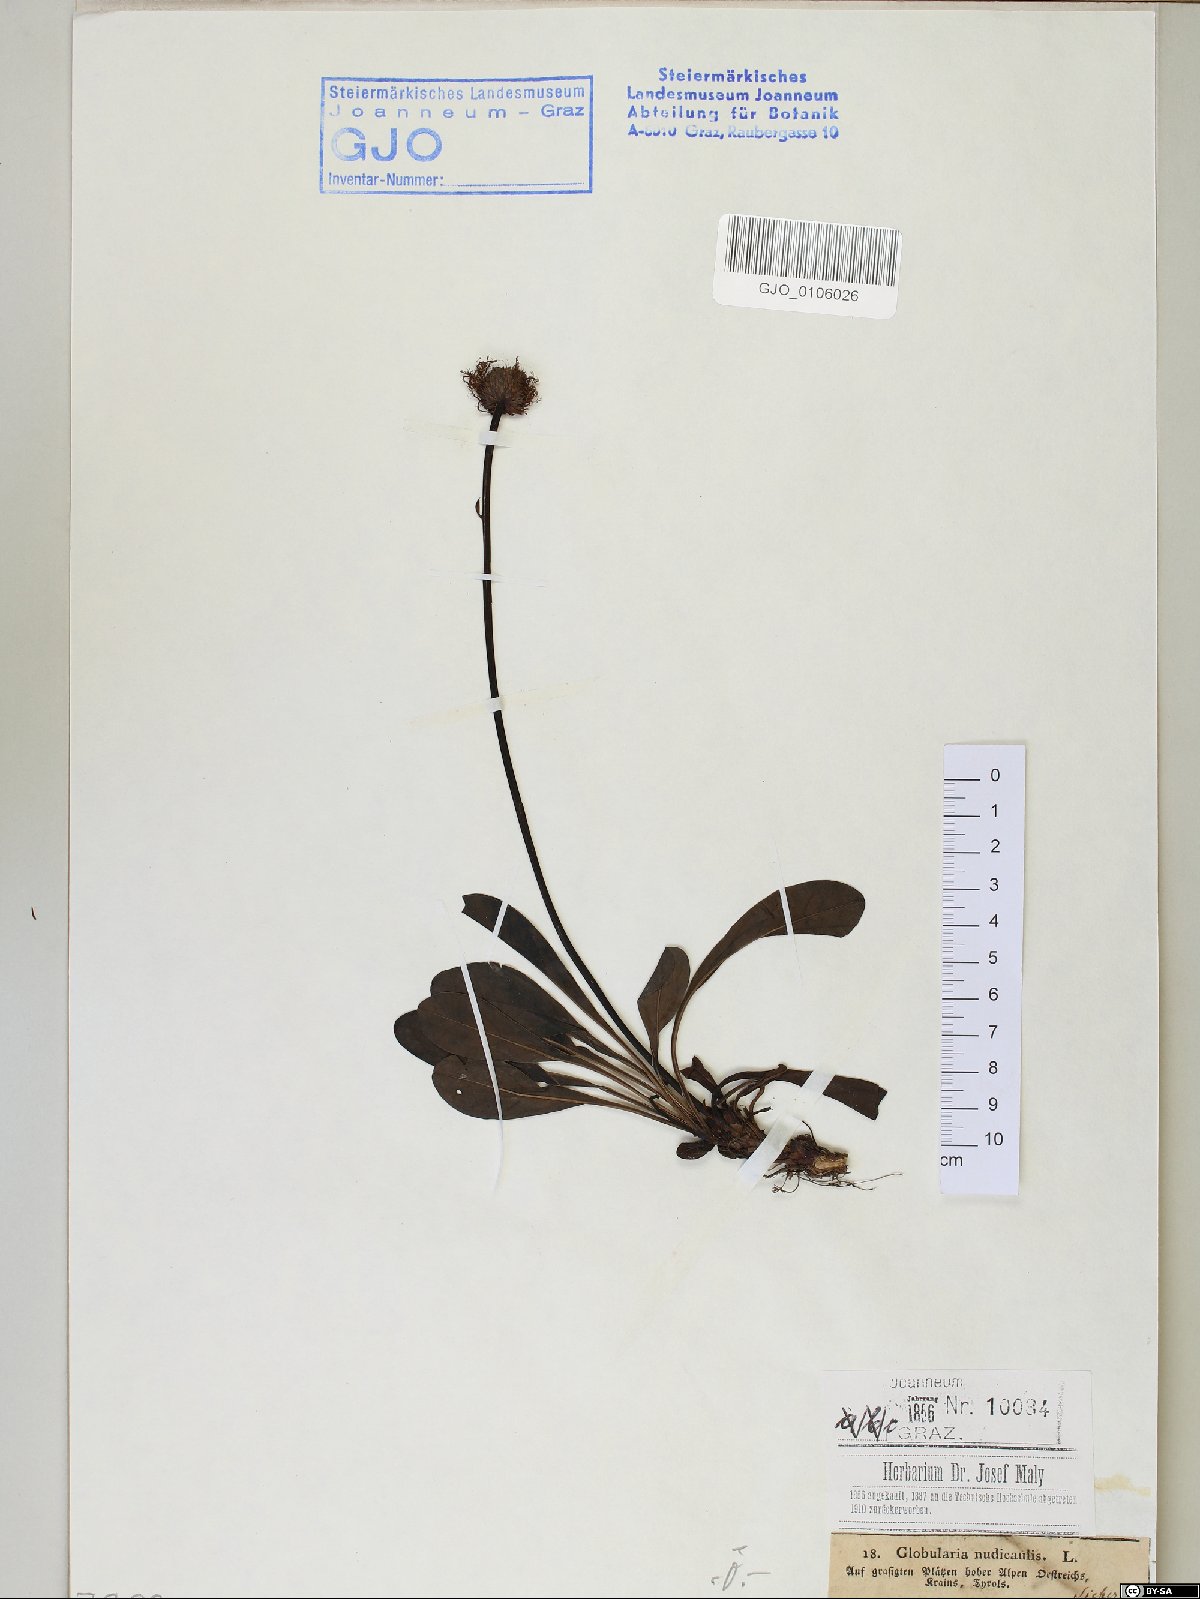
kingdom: Plantae
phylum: Tracheophyta
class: Magnoliopsida
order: Lamiales
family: Plantaginaceae
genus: Globularia
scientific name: Globularia nudicaulis
